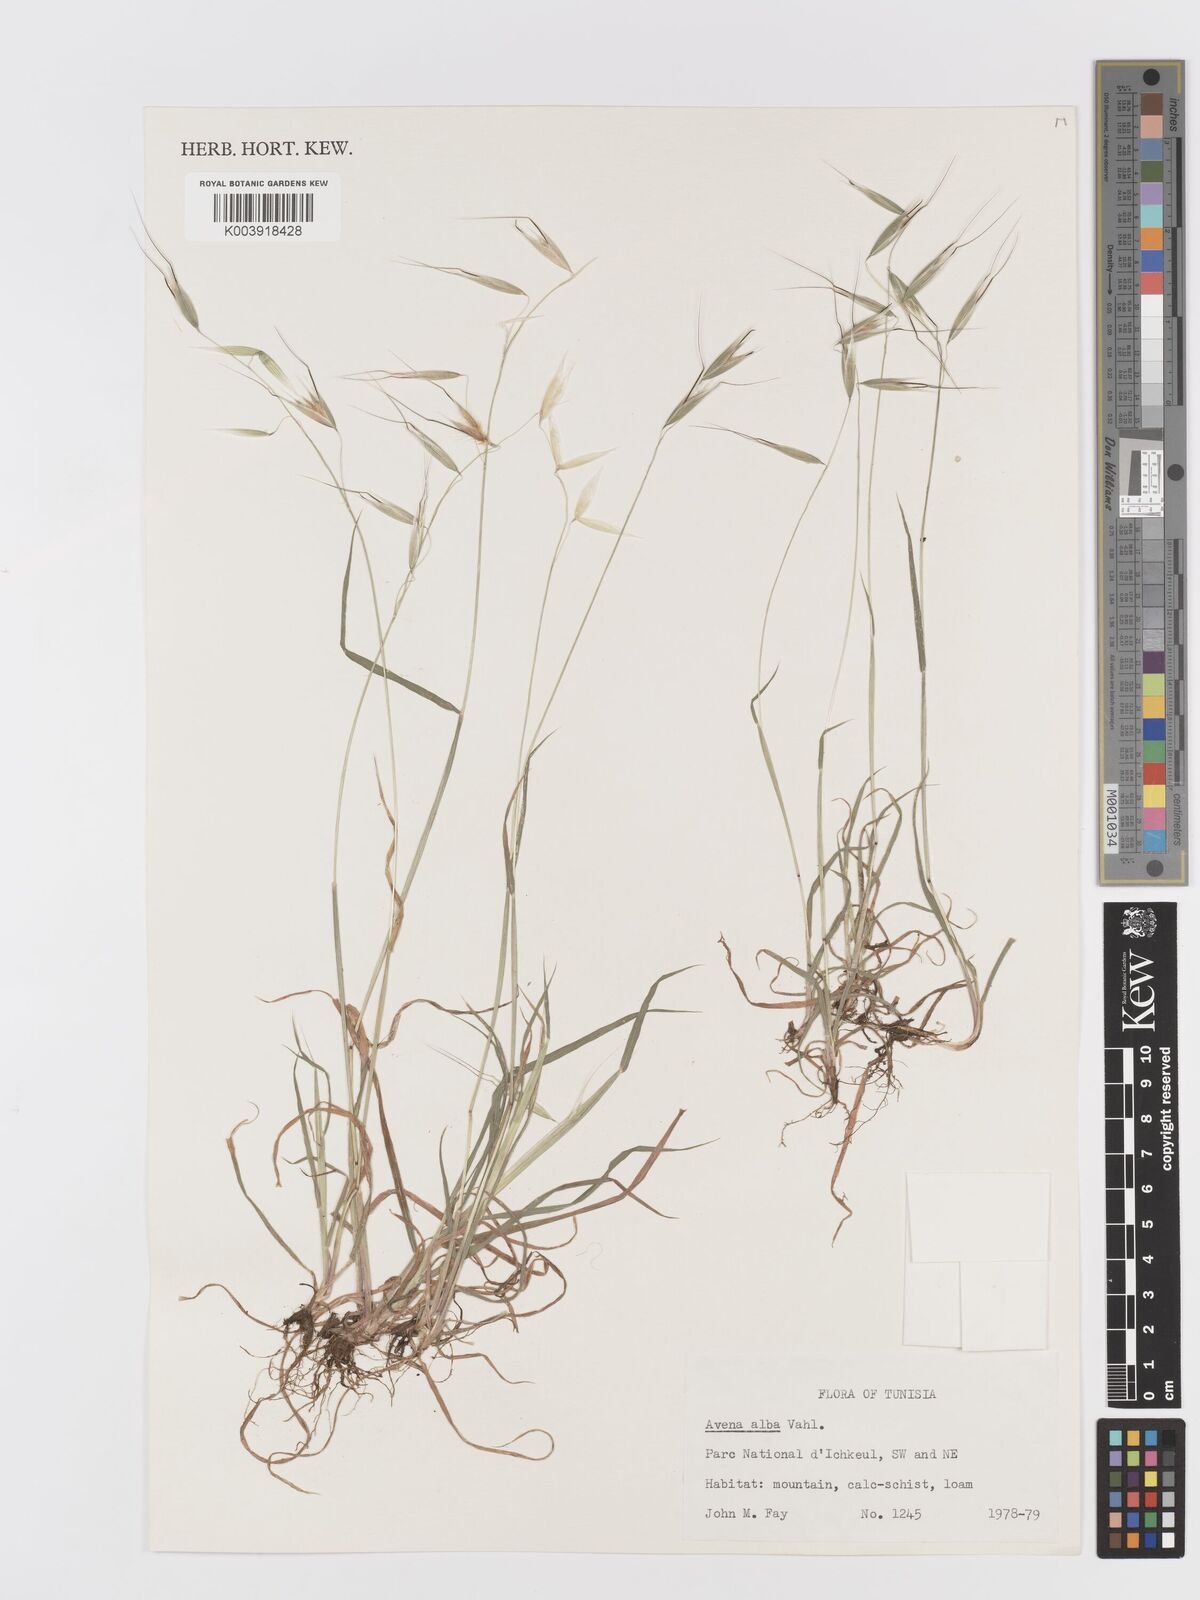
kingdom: Plantae
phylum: Tracheophyta
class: Liliopsida
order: Poales
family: Poaceae
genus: Avena
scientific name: Avena
